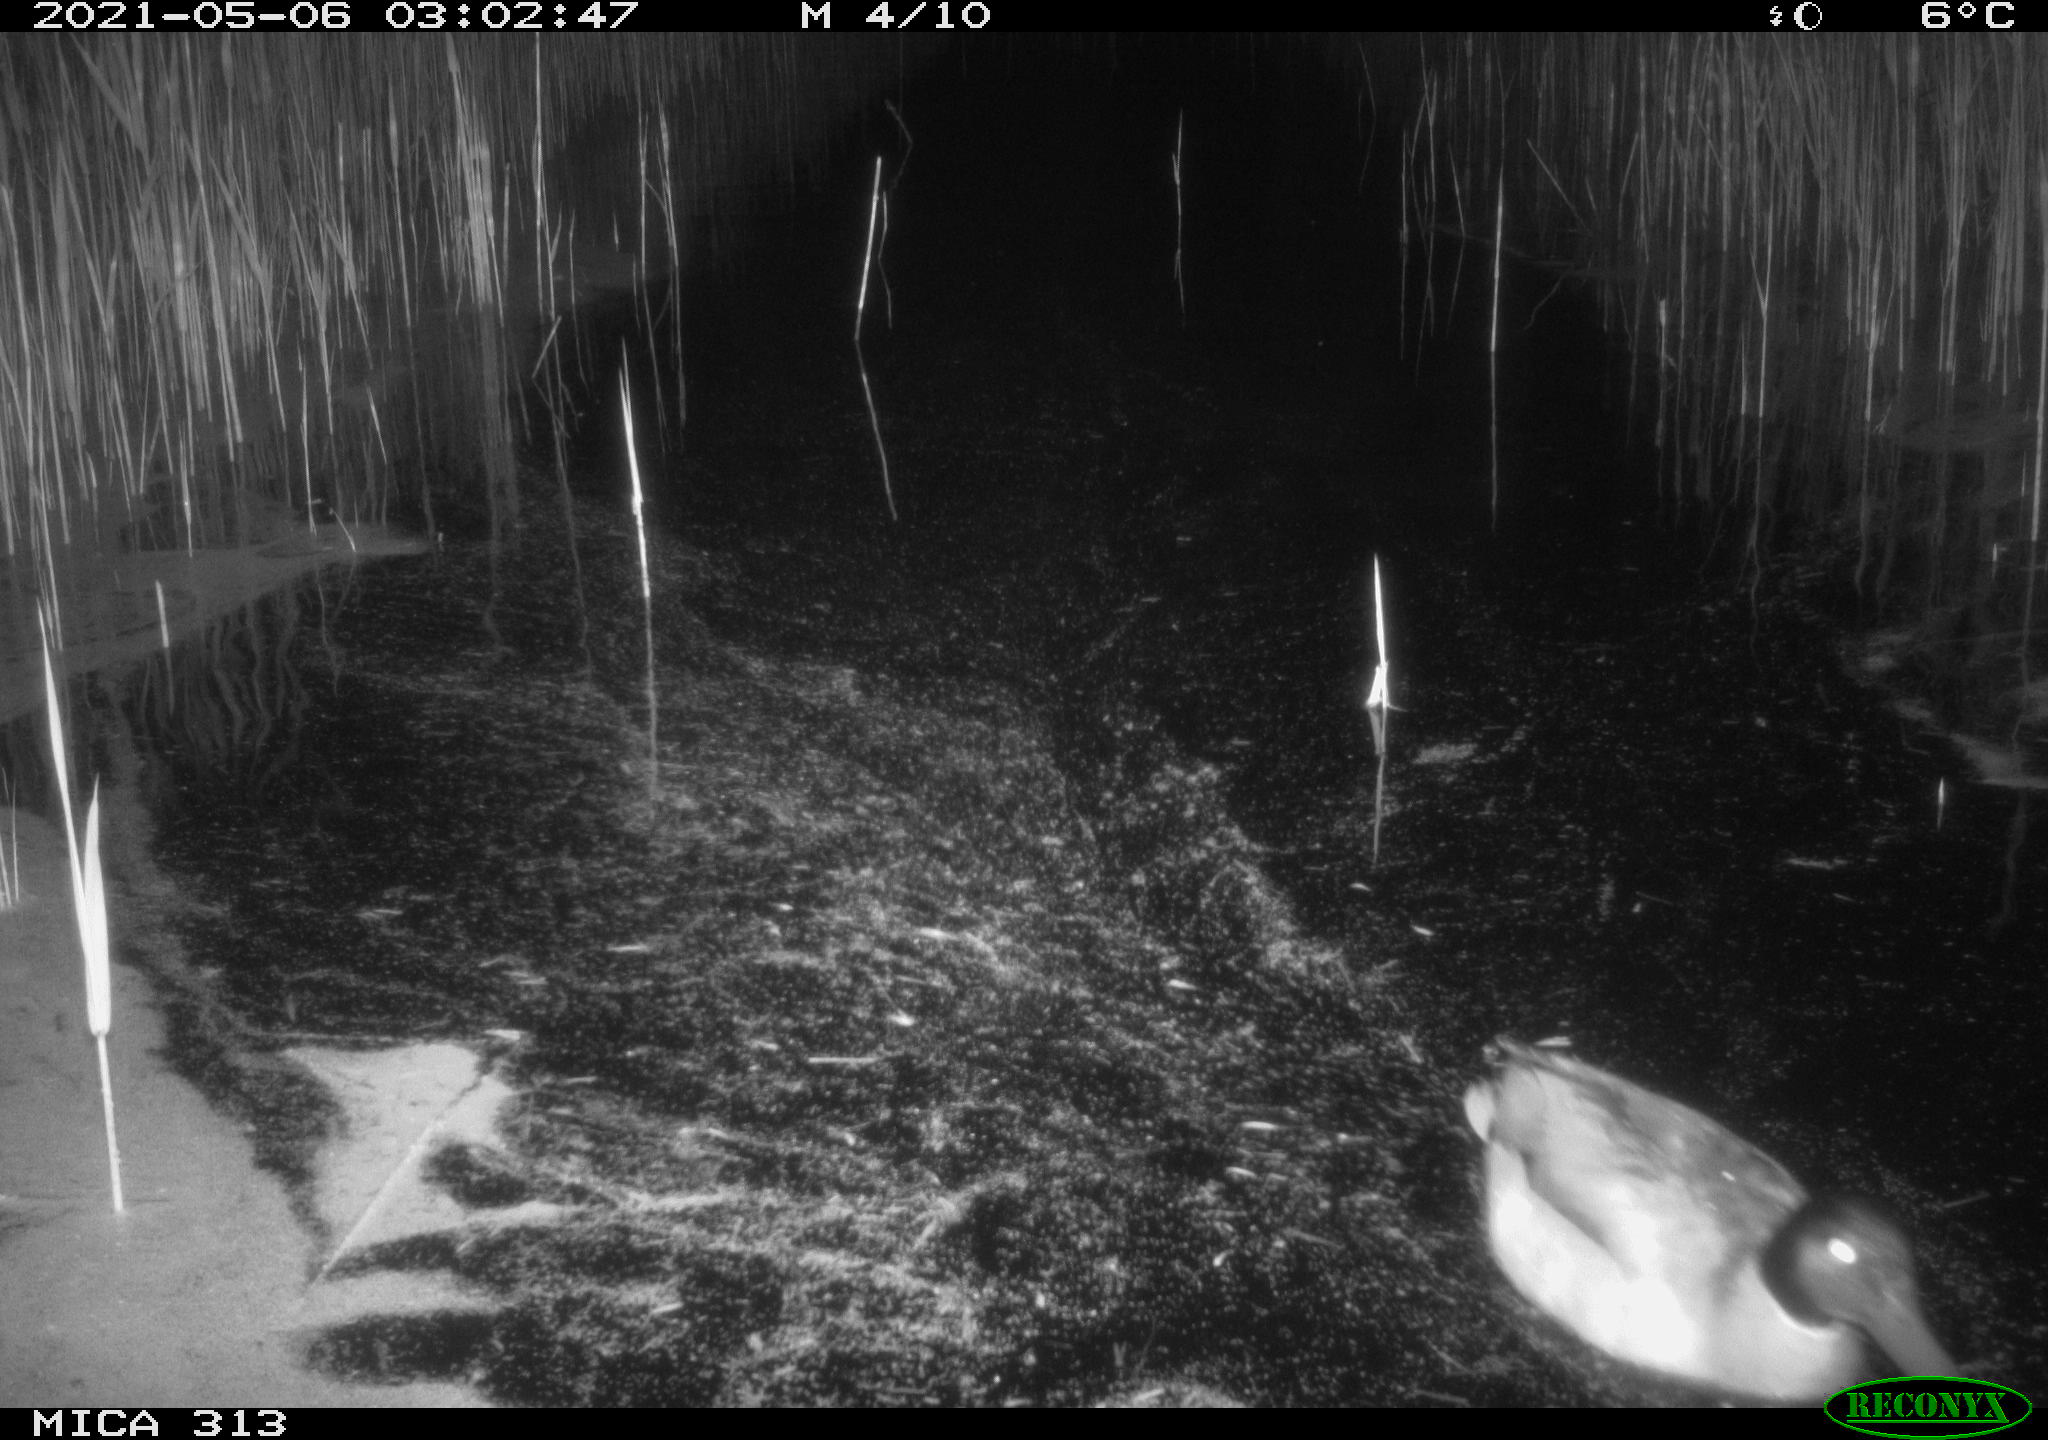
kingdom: Animalia
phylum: Chordata
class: Aves
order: Gruiformes
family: Rallidae
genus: Fulica
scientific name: Fulica atra
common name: Eurasian coot
